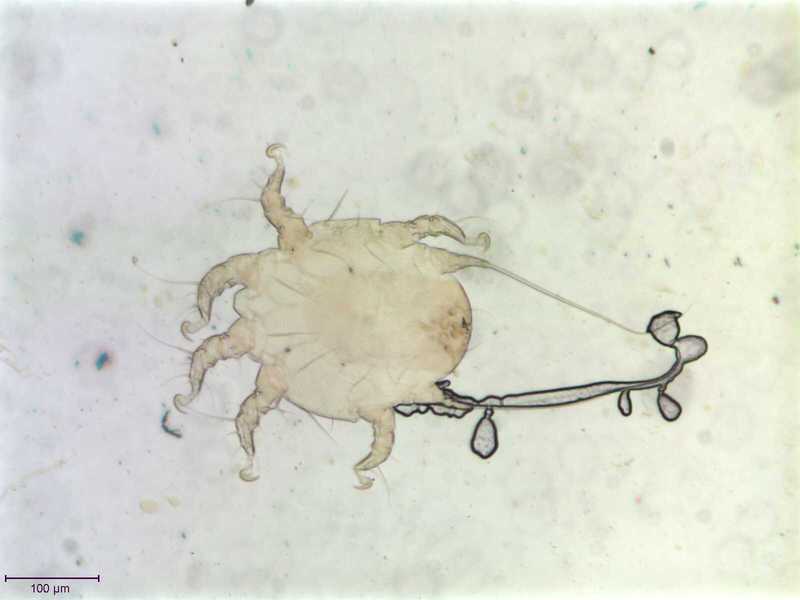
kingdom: Animalia
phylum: Arthropoda
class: Arachnida
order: Sarcoptiformes
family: Chaetodactylidae
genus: Sennertia
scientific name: Sennertia caffra
